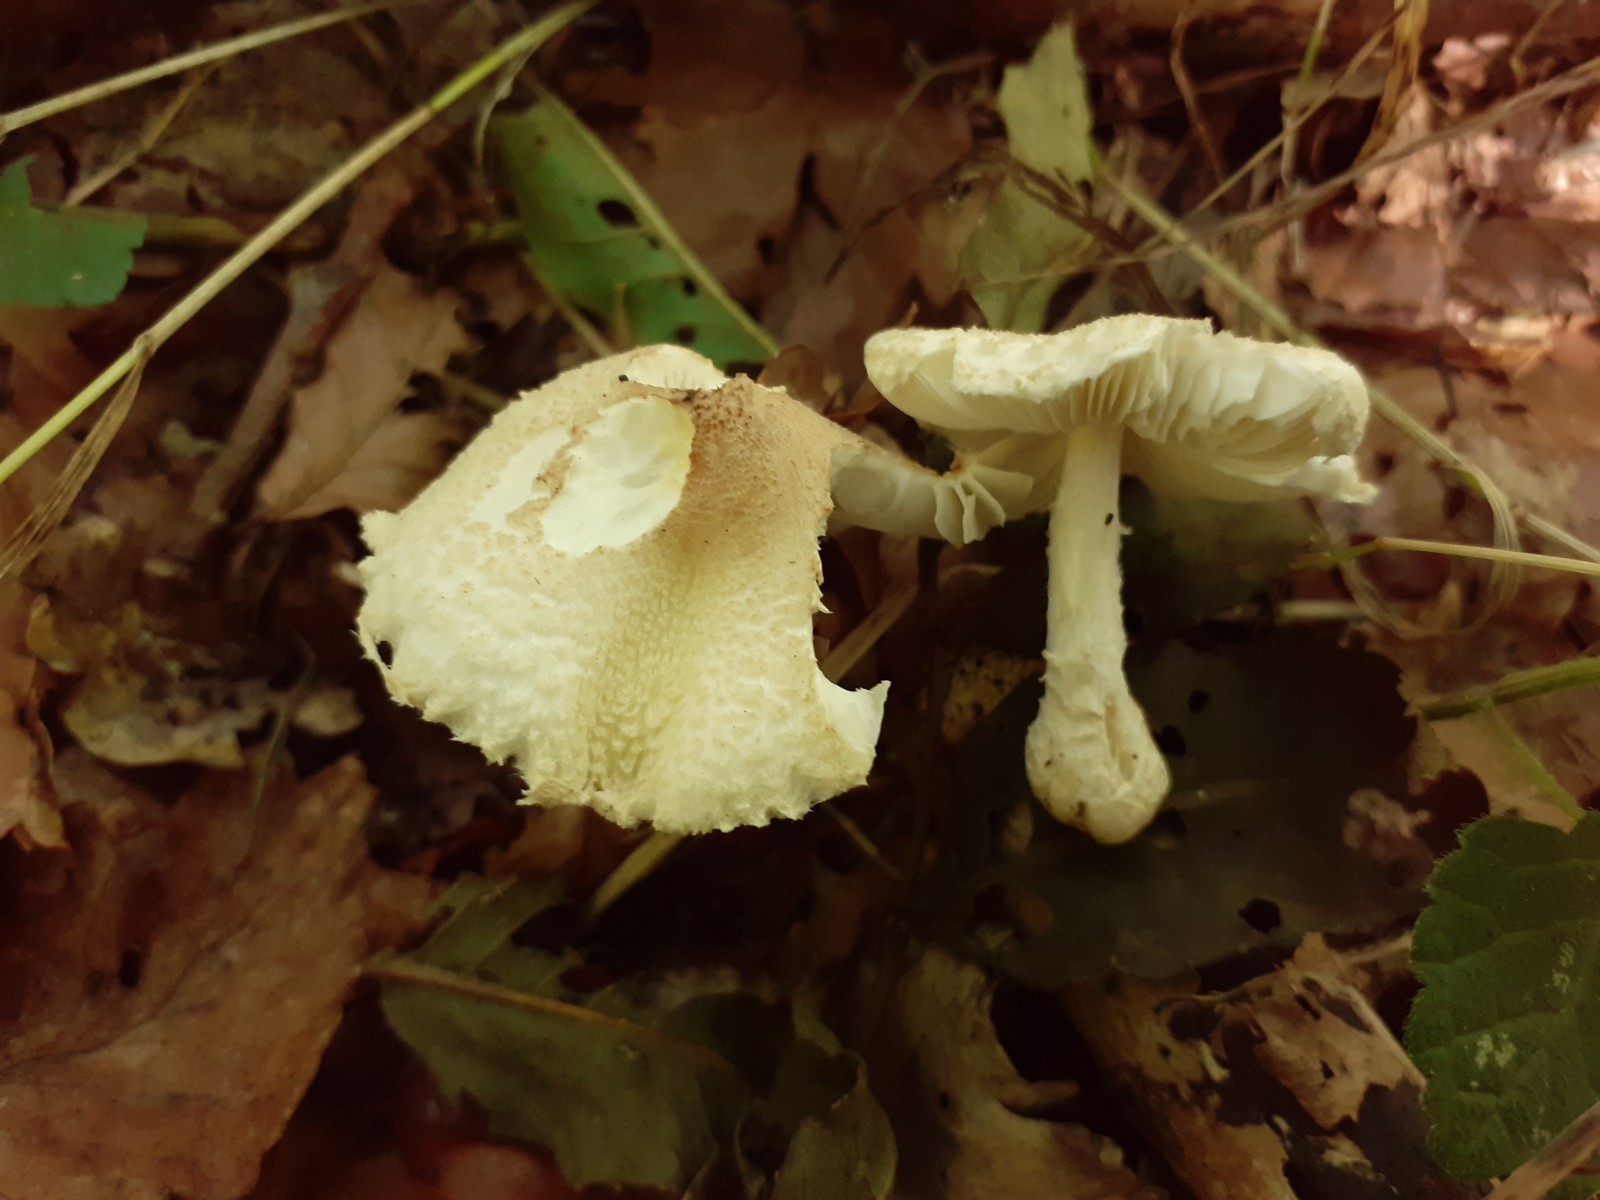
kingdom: Fungi
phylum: Basidiomycota
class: Agaricomycetes
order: Agaricales
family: Agaricaceae
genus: Lepiota
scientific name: Lepiota clypeolaria
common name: flosset parasolhat
